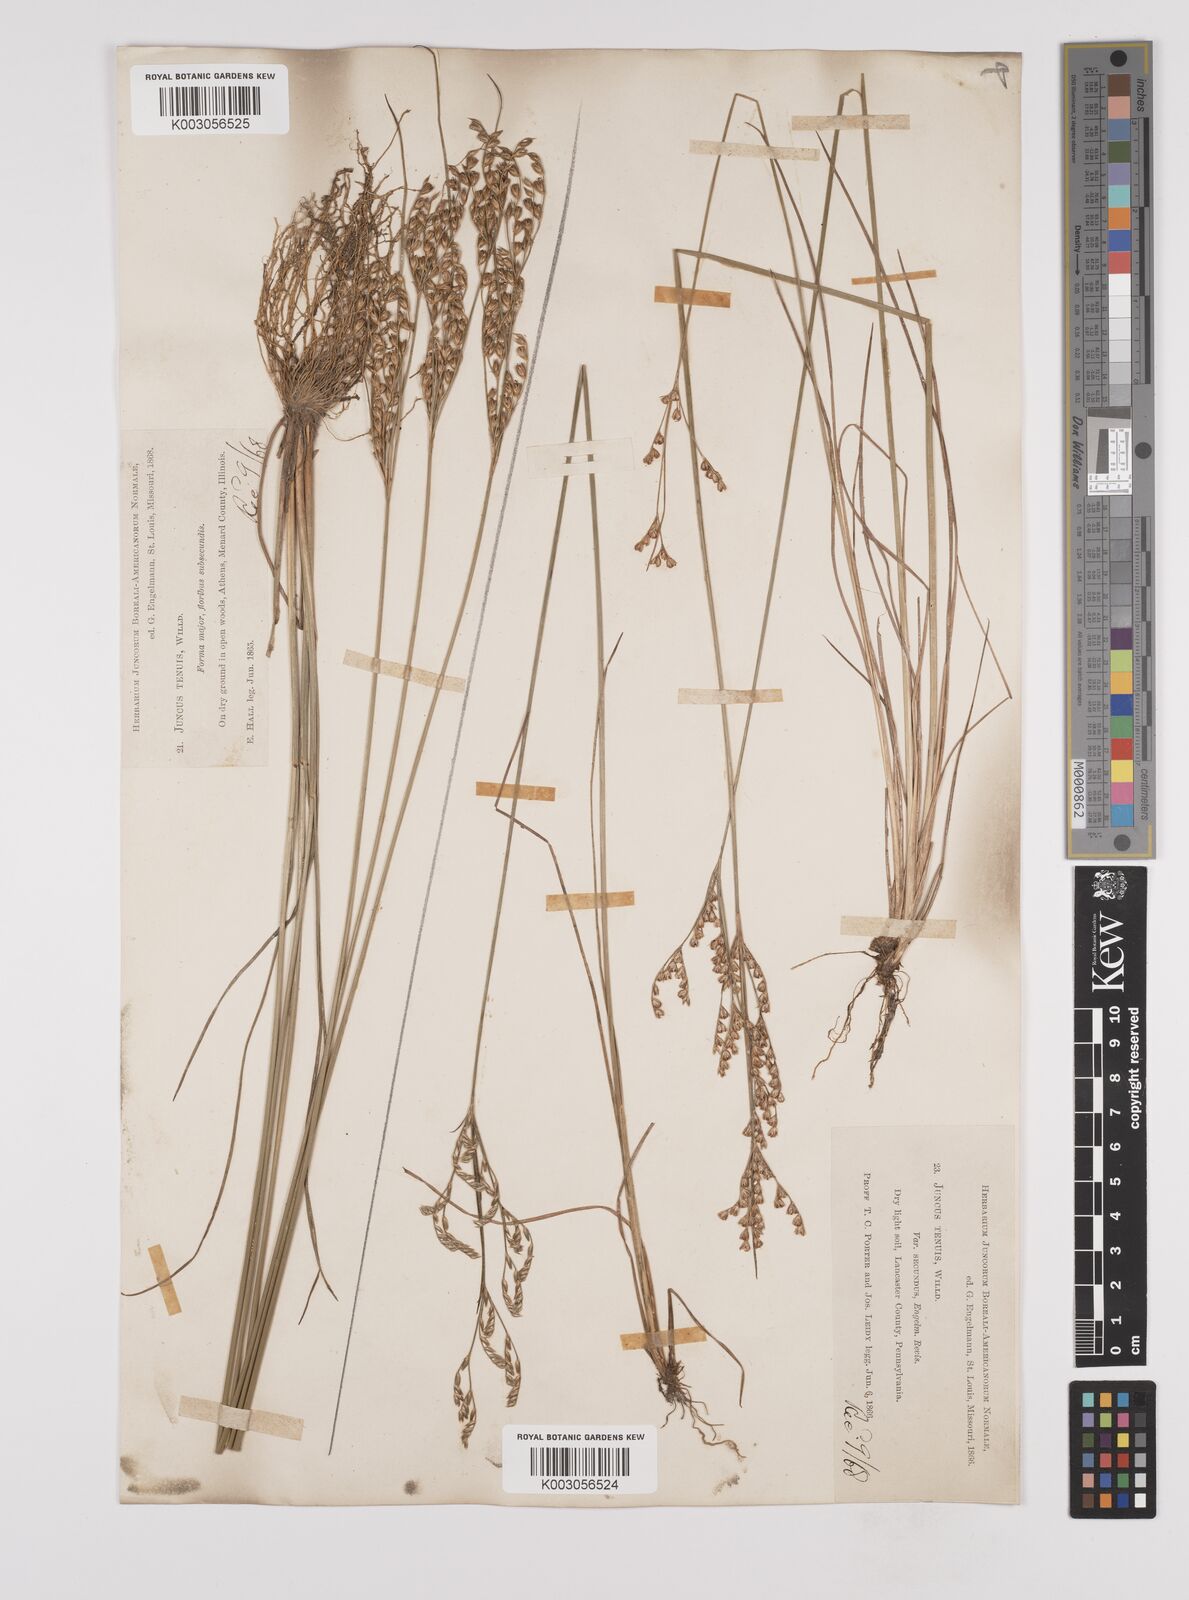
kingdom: Plantae
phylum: Tracheophyta
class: Liliopsida
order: Poales
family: Juncaceae
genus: Juncus
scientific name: Juncus secundus
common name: Lopsided rush
